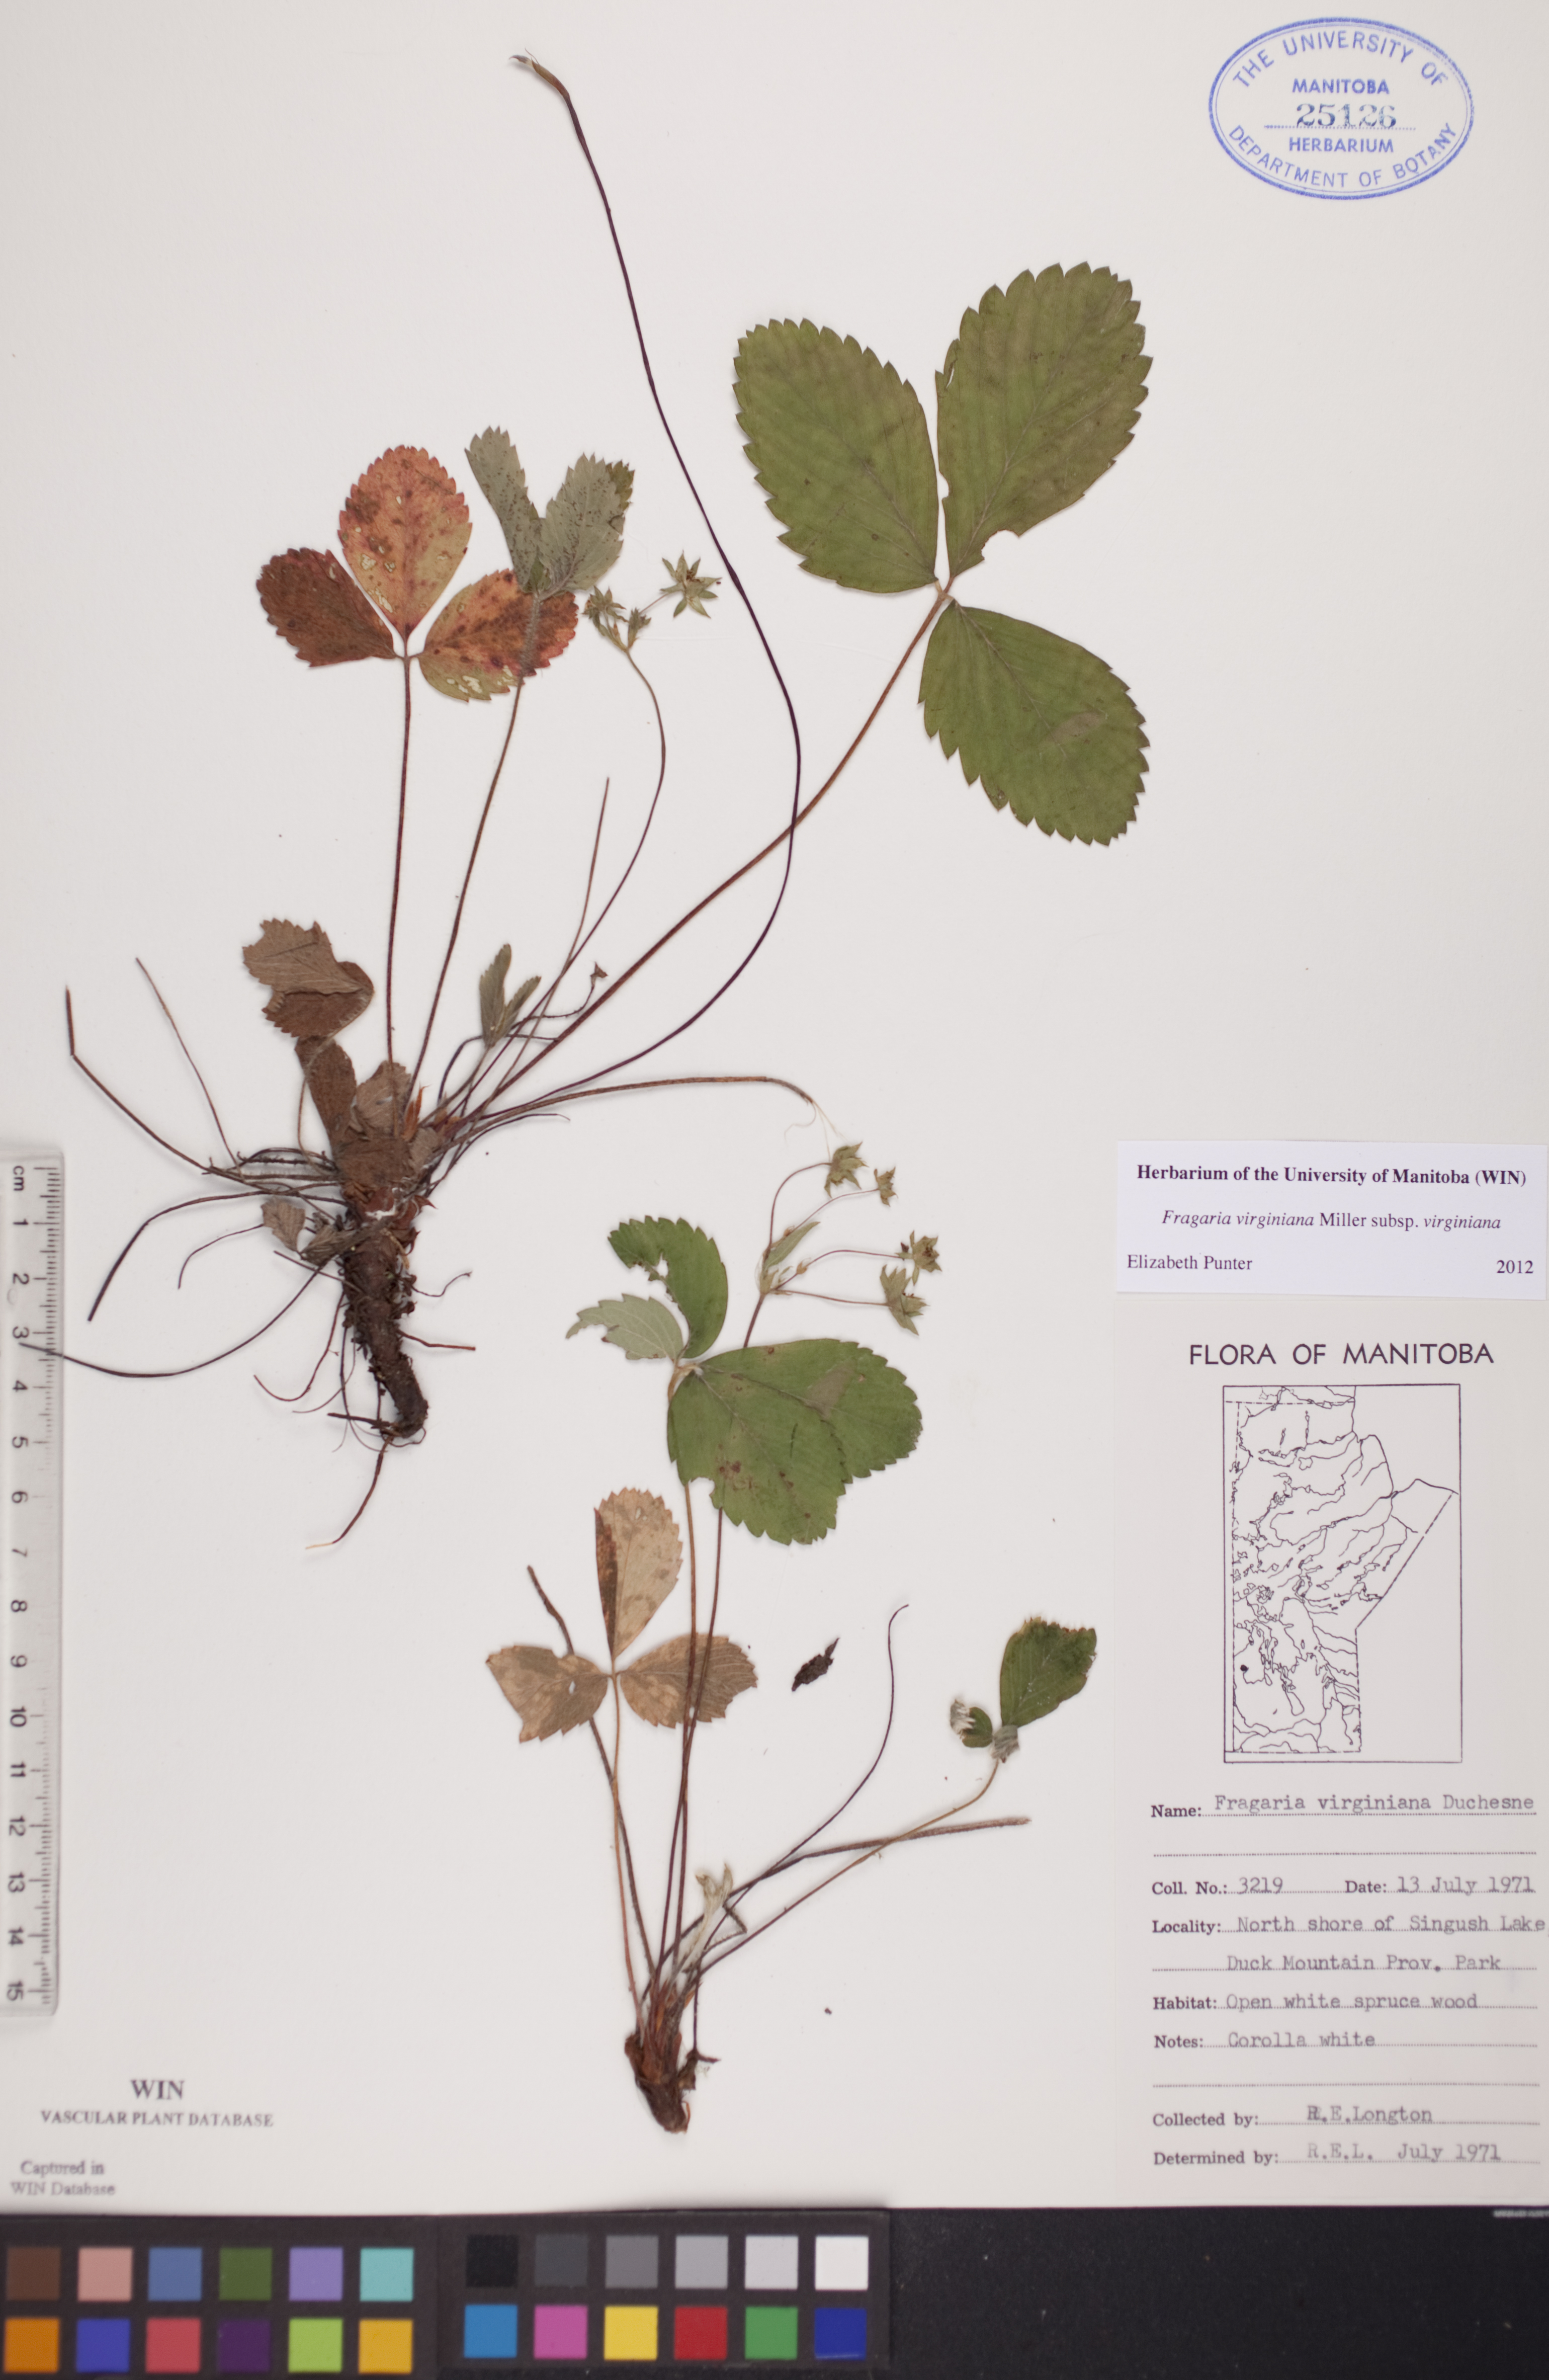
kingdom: Plantae
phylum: Tracheophyta
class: Magnoliopsida
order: Rosales
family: Rosaceae
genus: Fragaria
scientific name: Fragaria virginiana
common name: Thickleaved wild strawberry
